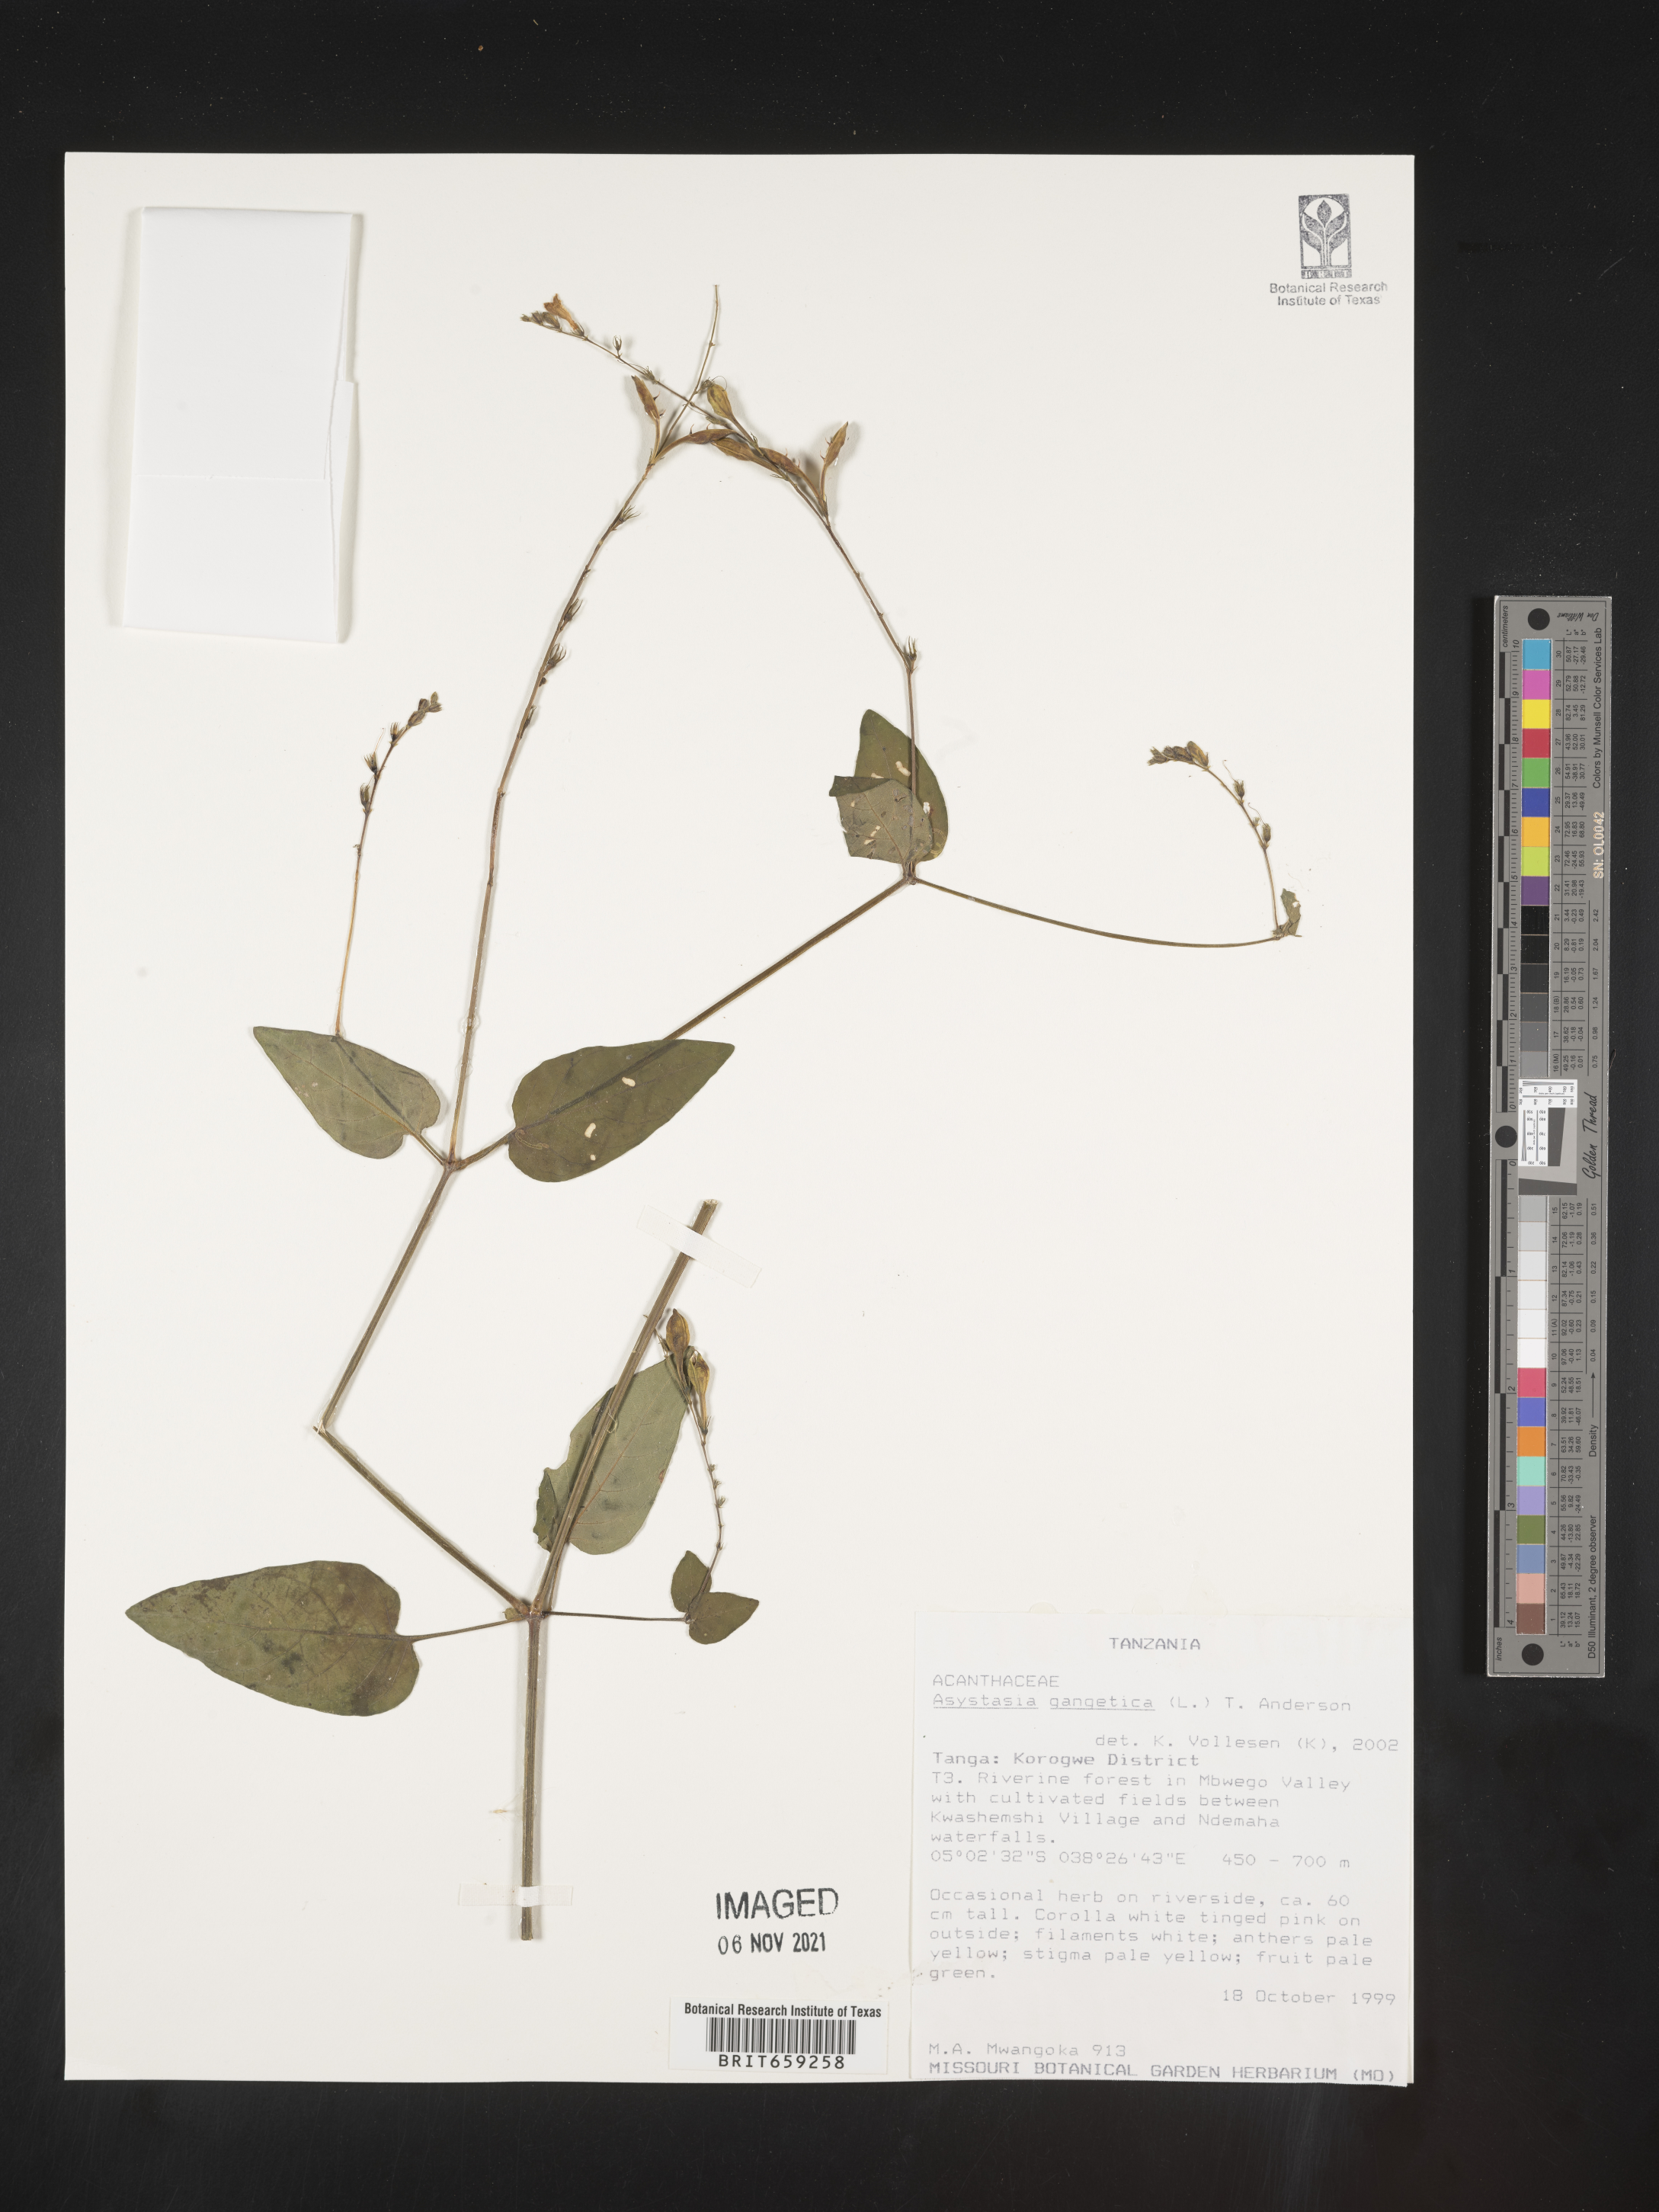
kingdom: Plantae
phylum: Tracheophyta
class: Magnoliopsida
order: Lamiales
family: Acanthaceae
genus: Asystasia
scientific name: Asystasia gangetica
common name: Chinese violet
